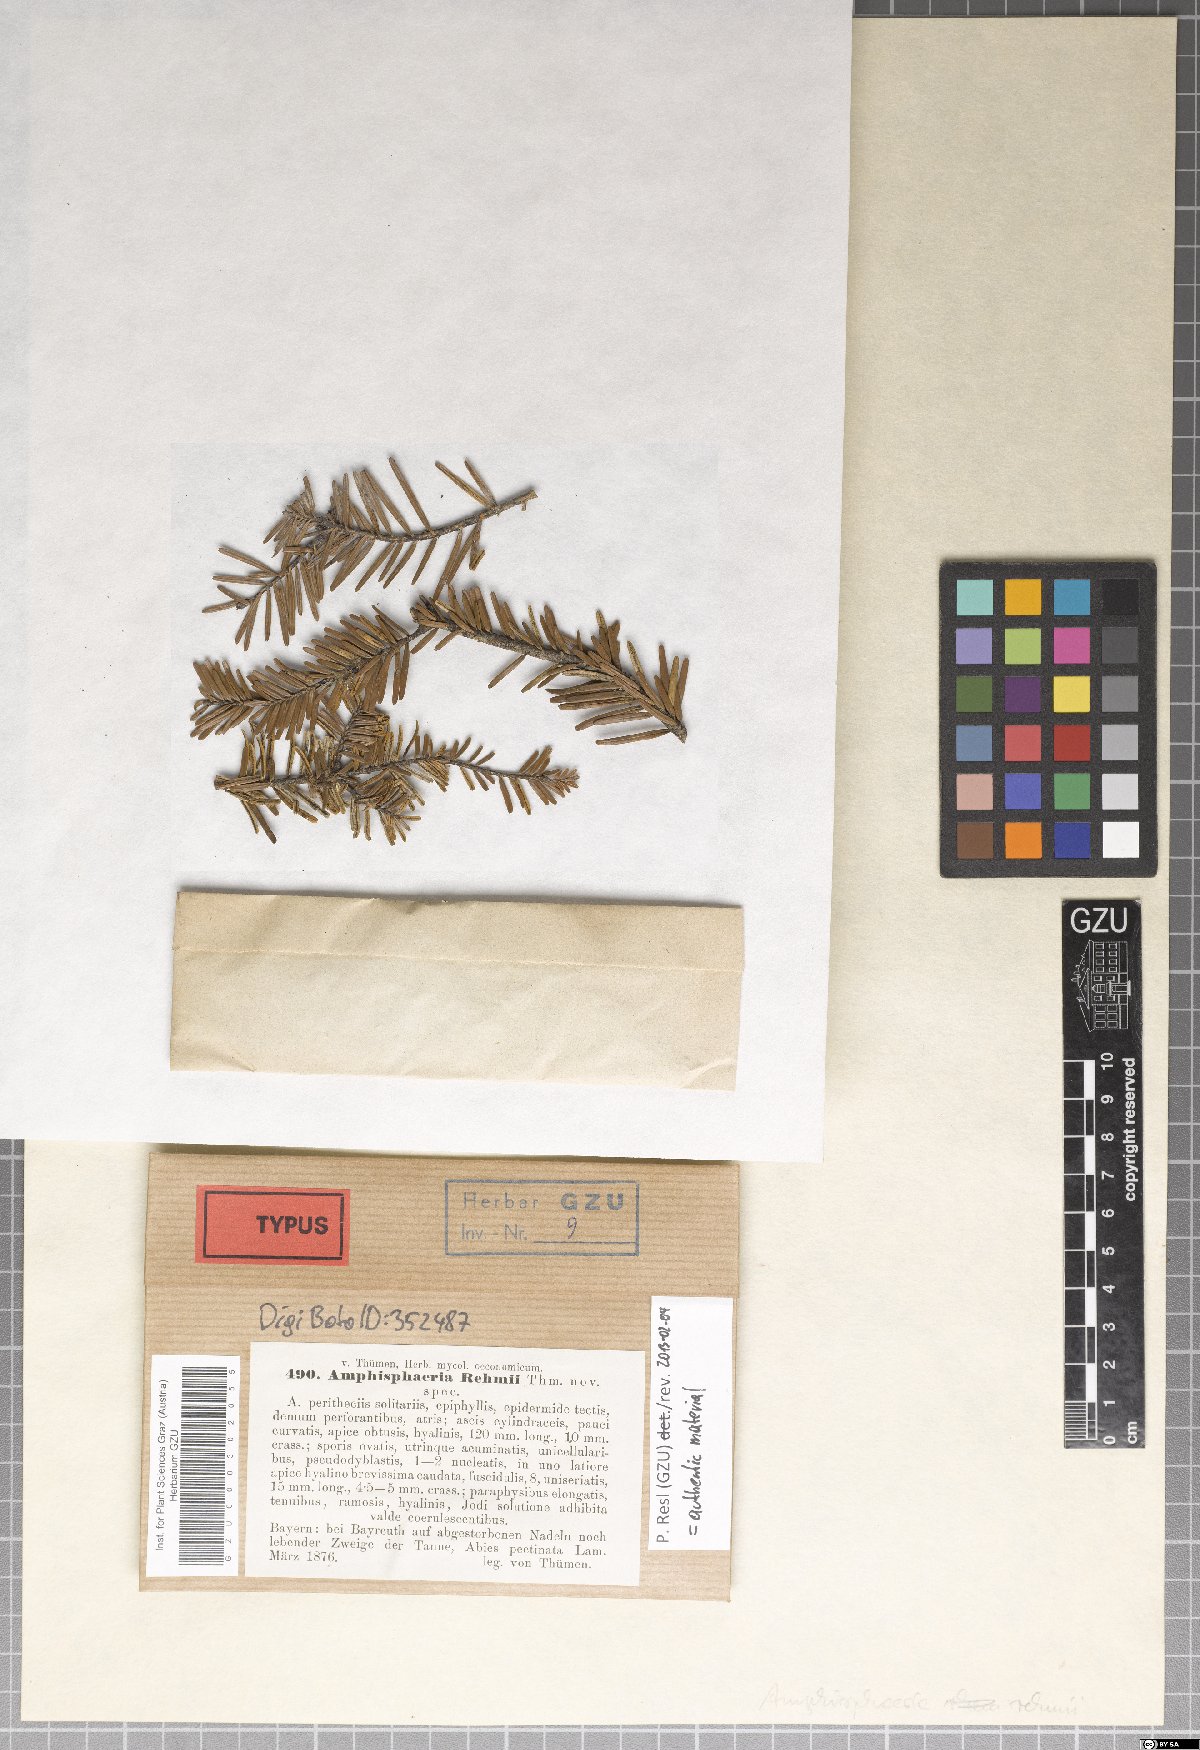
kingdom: Fungi
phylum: Ascomycota
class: Sordariomycetes
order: Xylariales
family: Xylariaceae
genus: Anthostomella
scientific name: Anthostomella formosa
